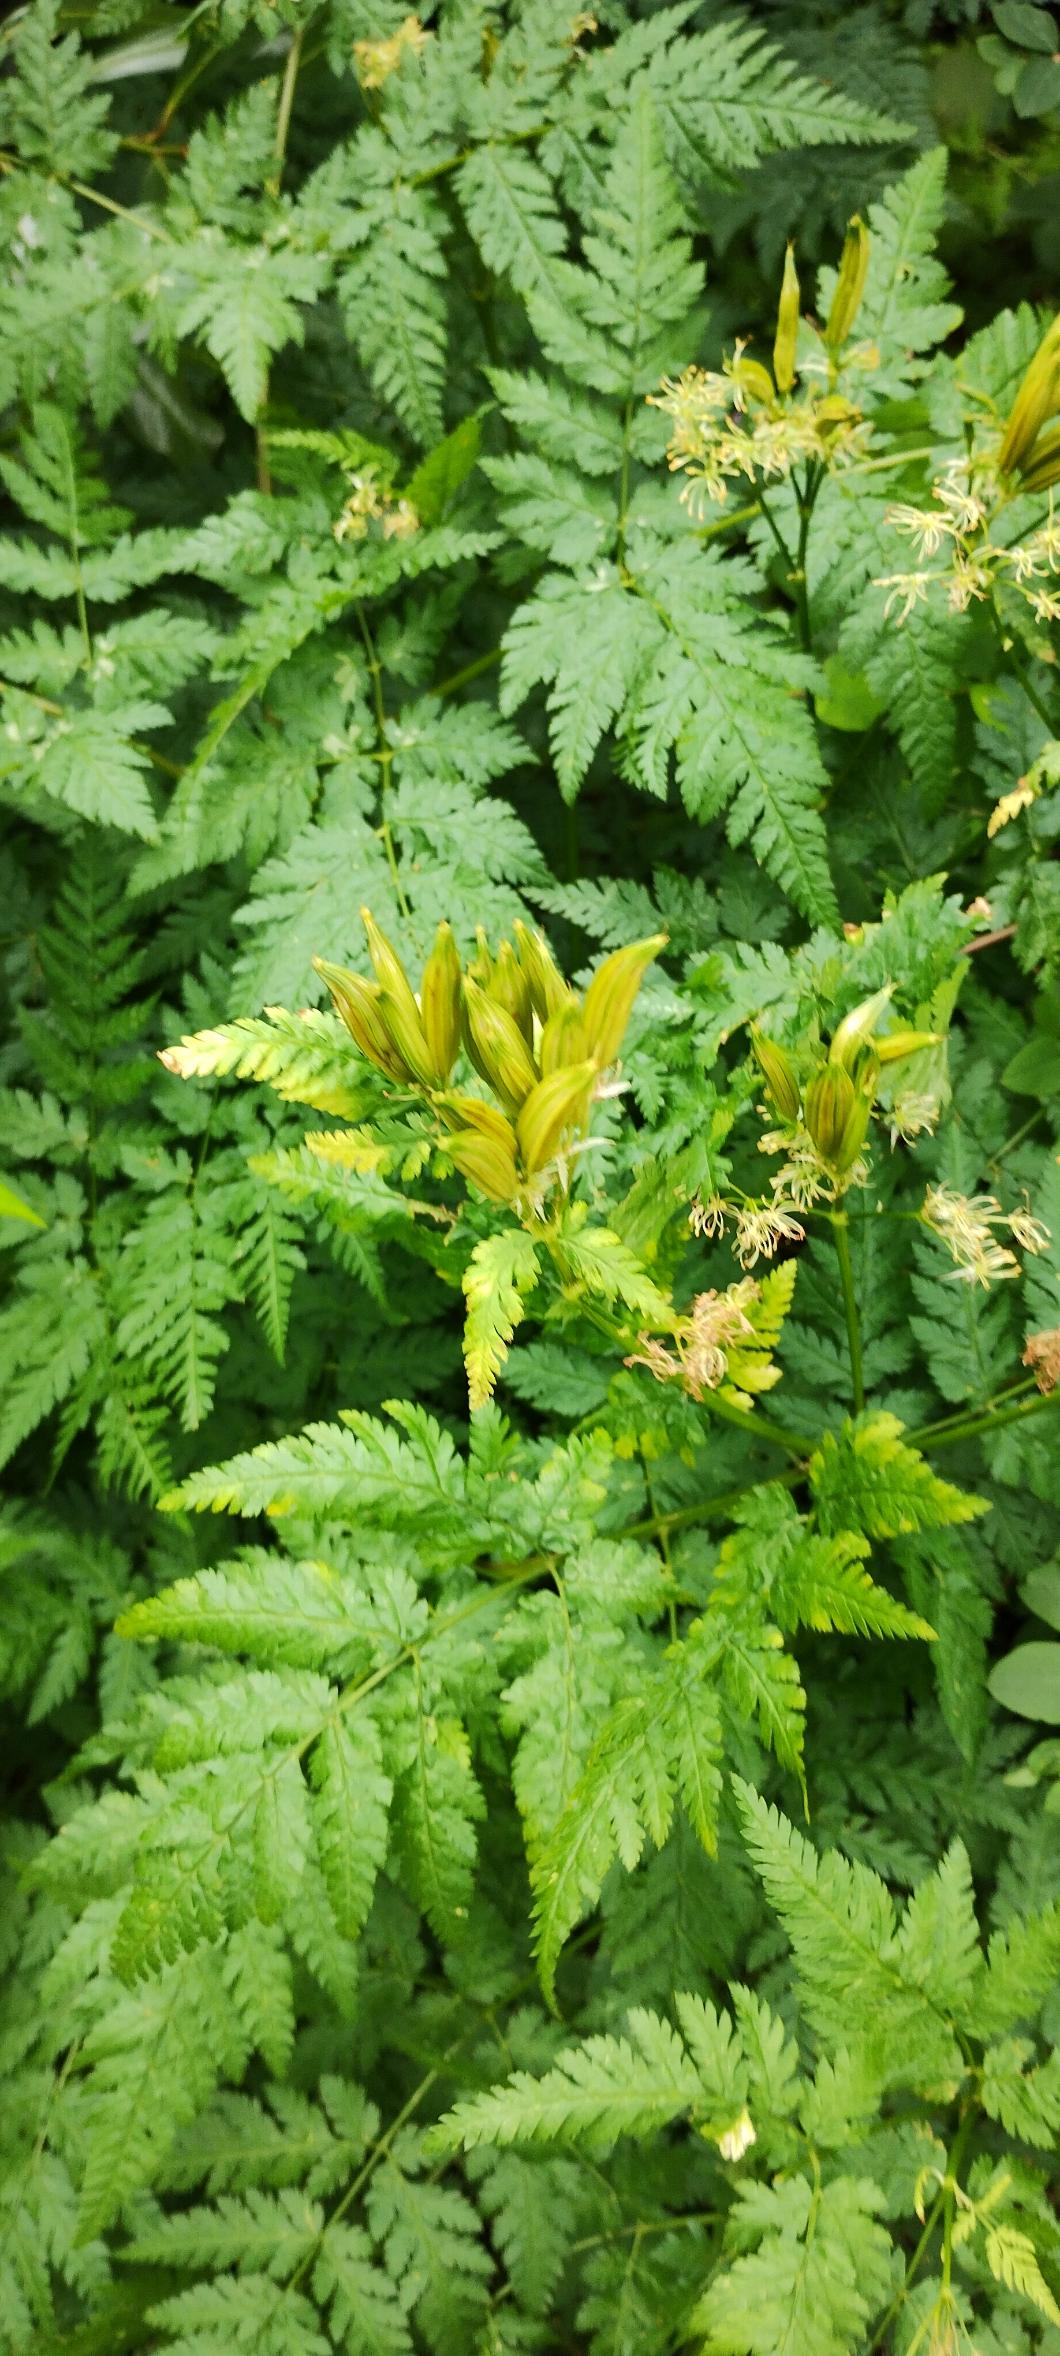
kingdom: Plantae
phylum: Tracheophyta
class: Magnoliopsida
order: Apiales
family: Apiaceae
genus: Myrrhis
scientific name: Myrrhis odorata
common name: Sødskærm
